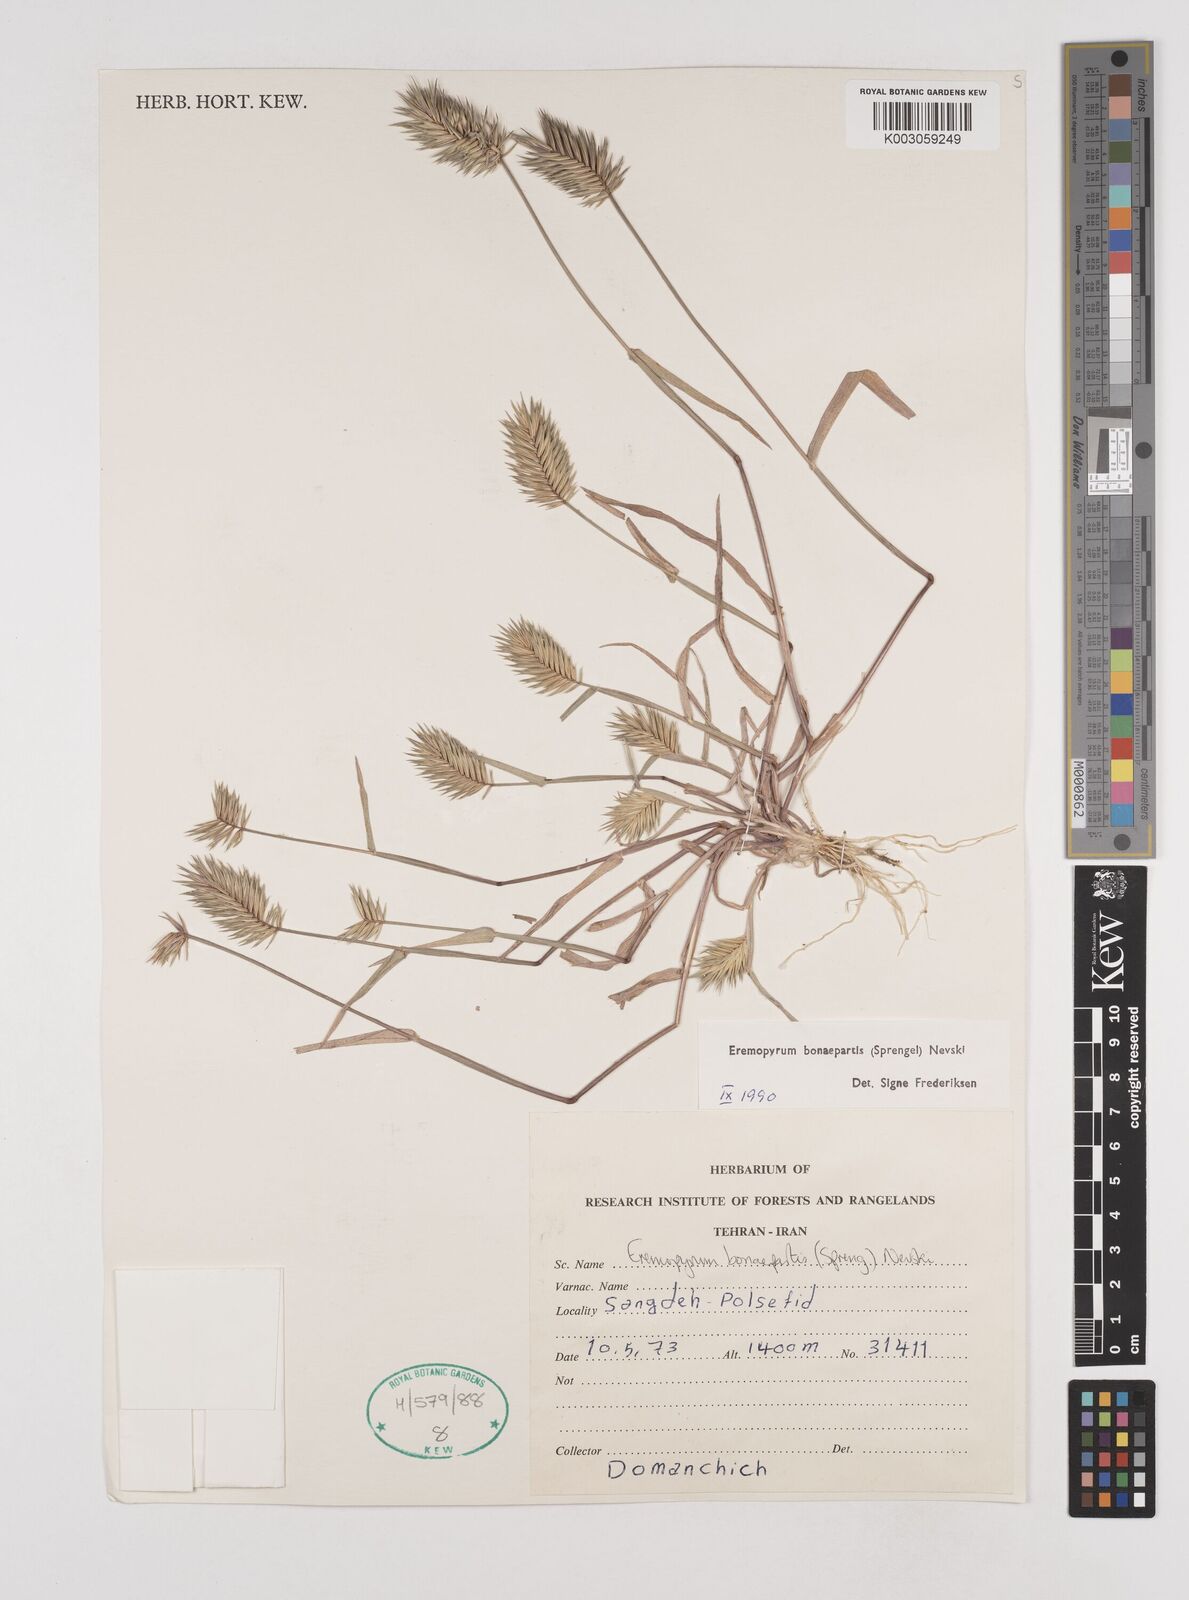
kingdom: Plantae
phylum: Tracheophyta
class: Liliopsida
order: Poales
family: Poaceae
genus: Eremopyrum
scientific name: Eremopyrum bonaepartis
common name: Tapertip false wheatgrass
